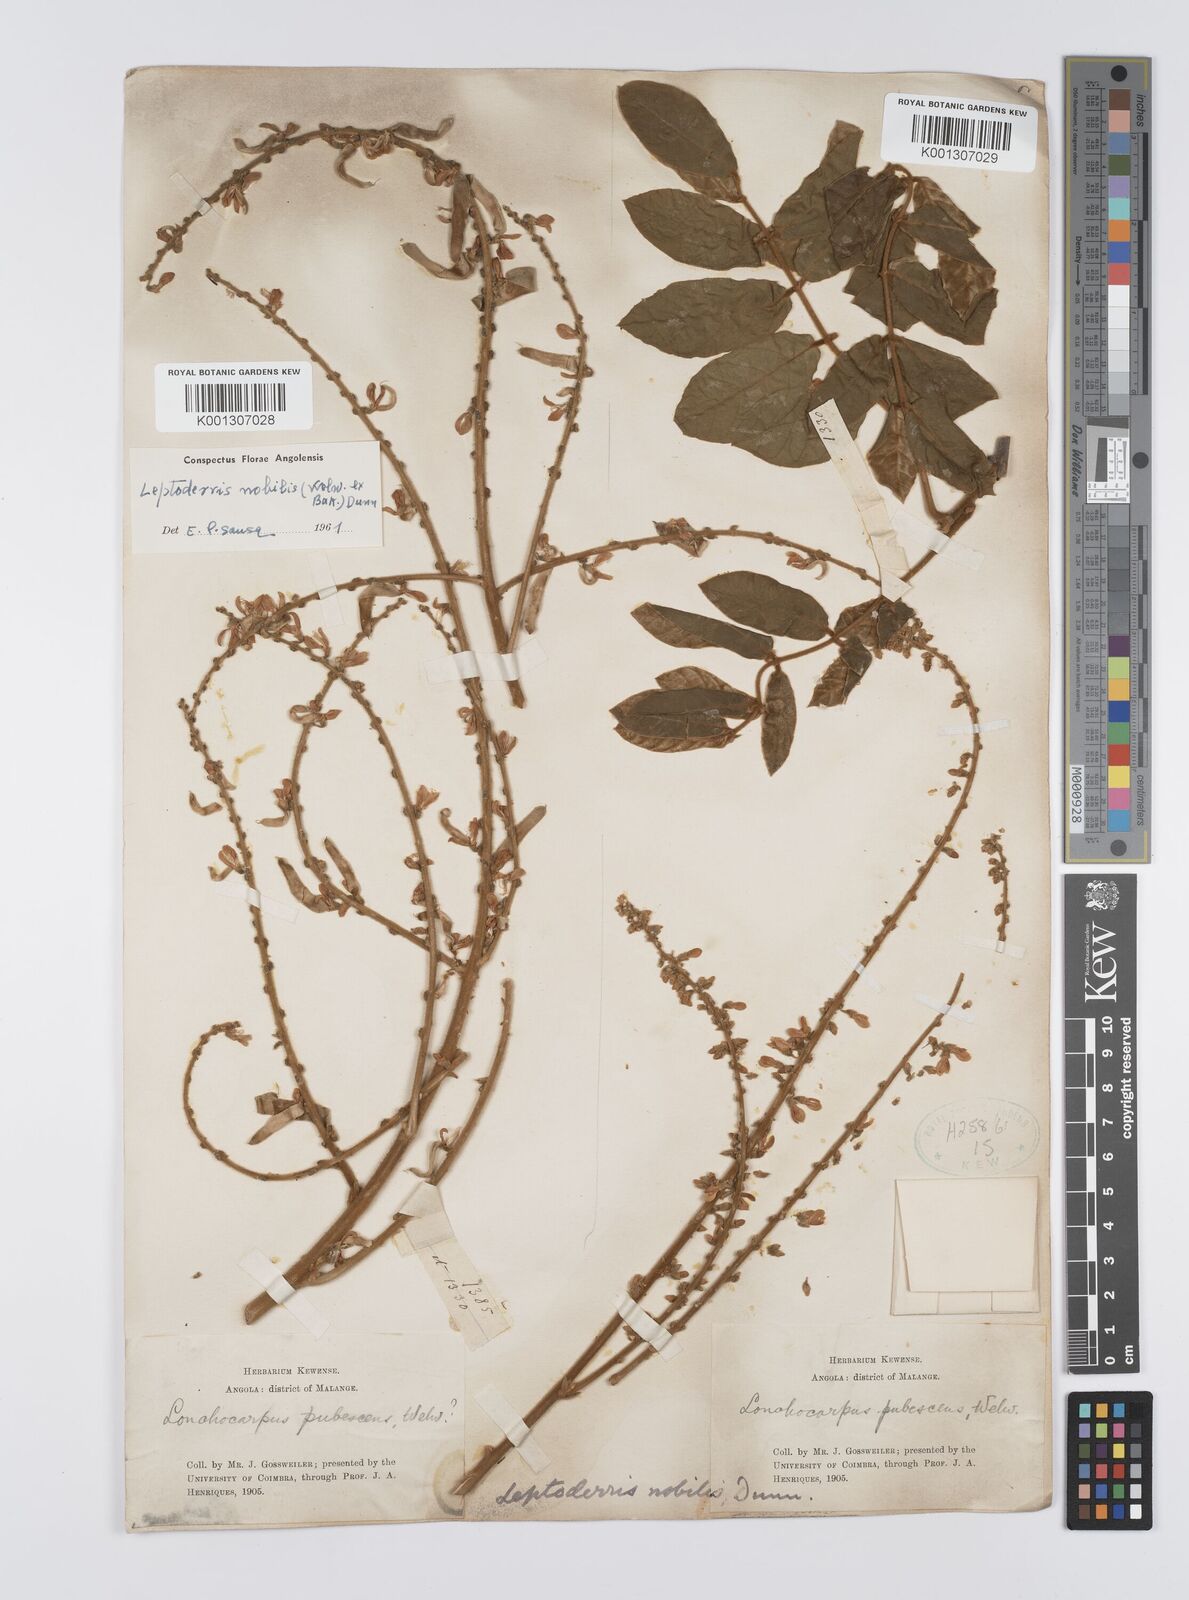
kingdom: Plantae
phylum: Tracheophyta
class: Magnoliopsida
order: Fabales
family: Fabaceae
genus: Leptoderris
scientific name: Leptoderris nobilis
